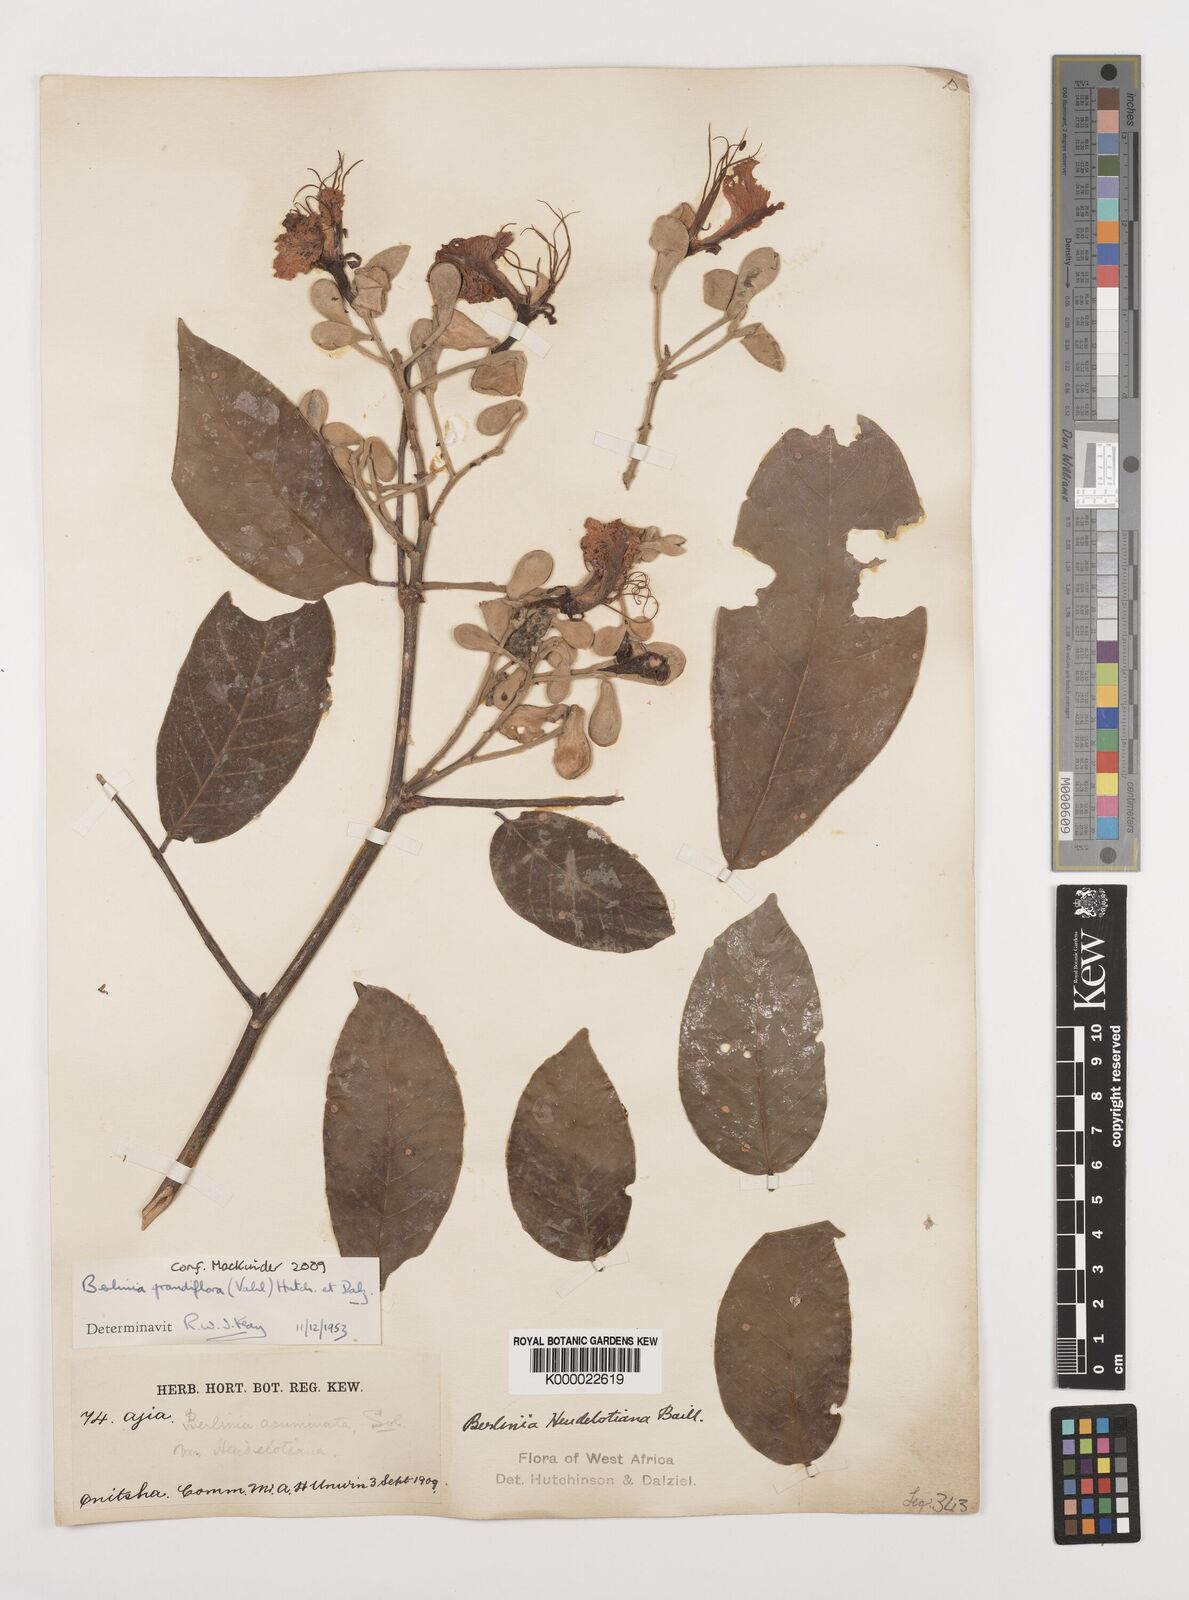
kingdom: Plantae
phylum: Tracheophyta
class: Magnoliopsida
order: Fabales
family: Fabaceae
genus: Berlinia
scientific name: Berlinia grandiflora
